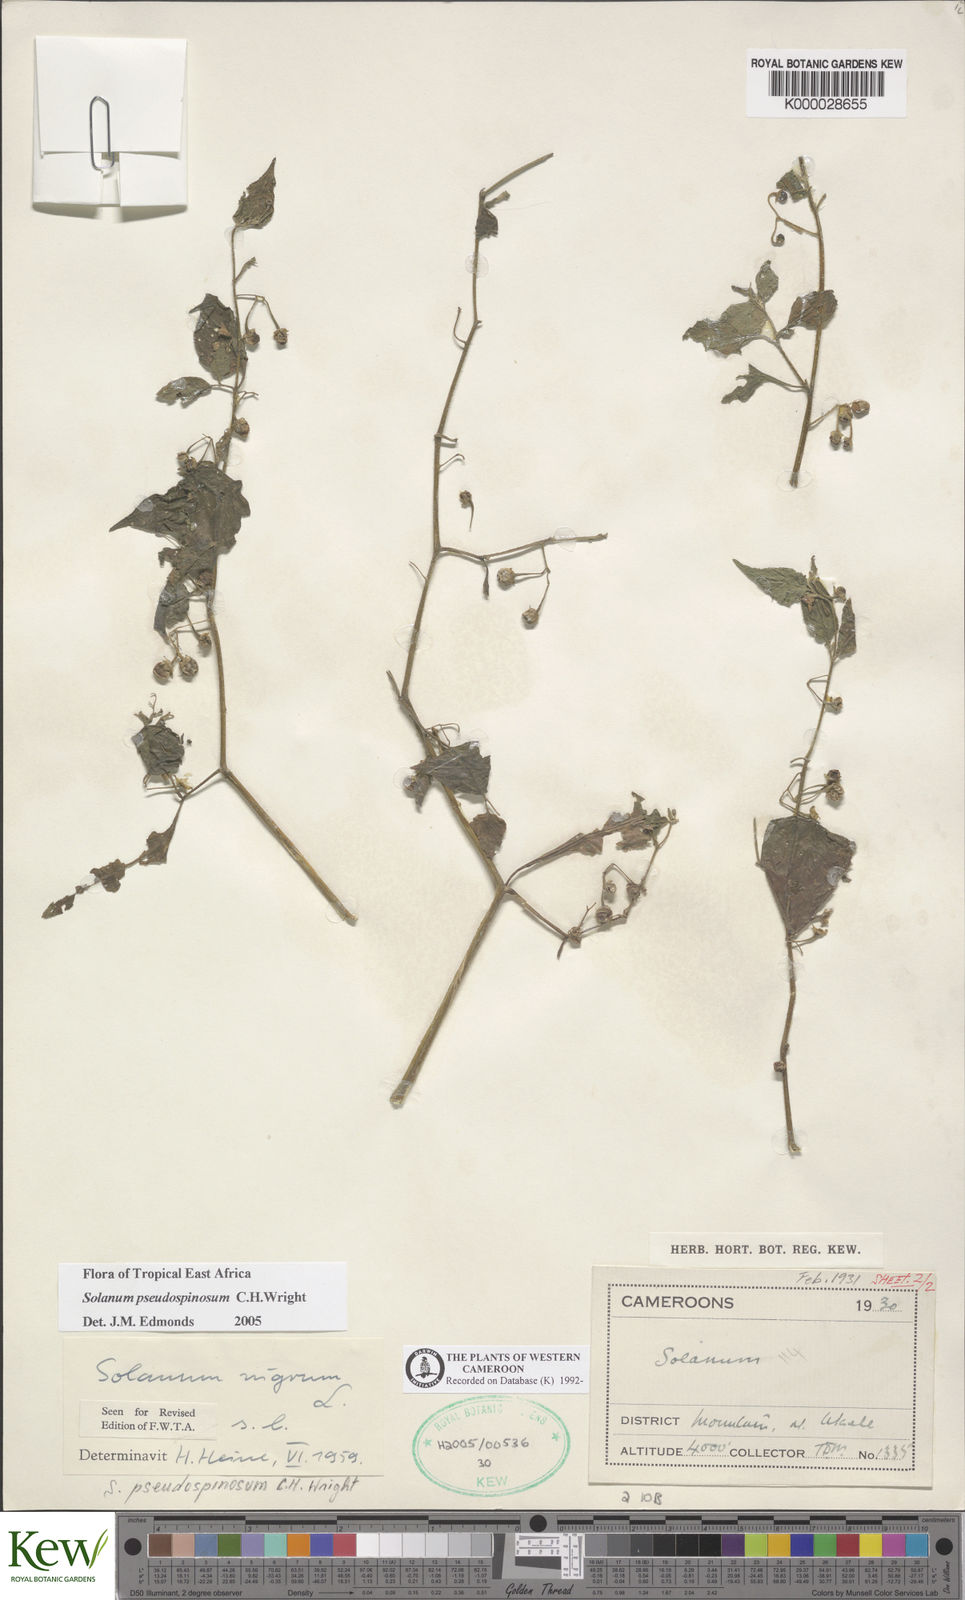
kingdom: Plantae
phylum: Tracheophyta
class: Magnoliopsida
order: Solanales
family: Solanaceae
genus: Solanum
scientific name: Solanum pseudospinosum
